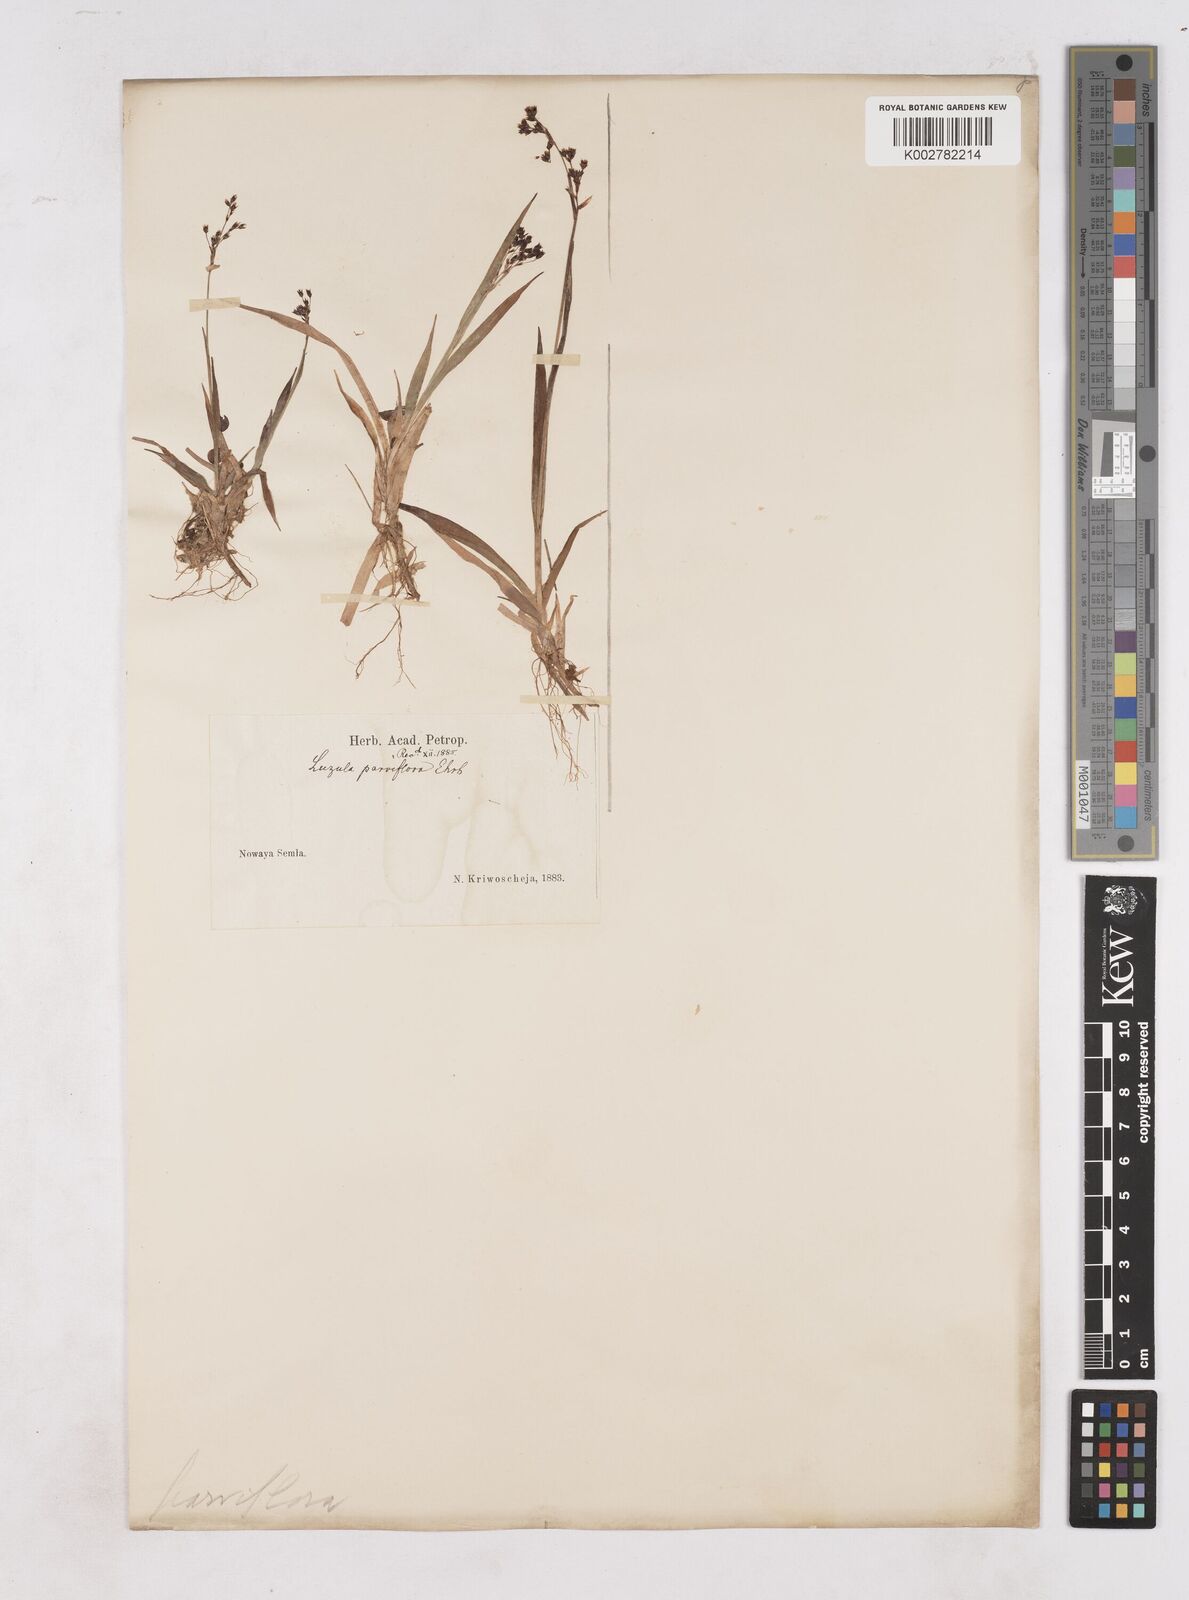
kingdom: Plantae
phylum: Tracheophyta
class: Liliopsida
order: Poales
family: Juncaceae
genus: Luzula
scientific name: Luzula parviflora
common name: Millet woodrush
